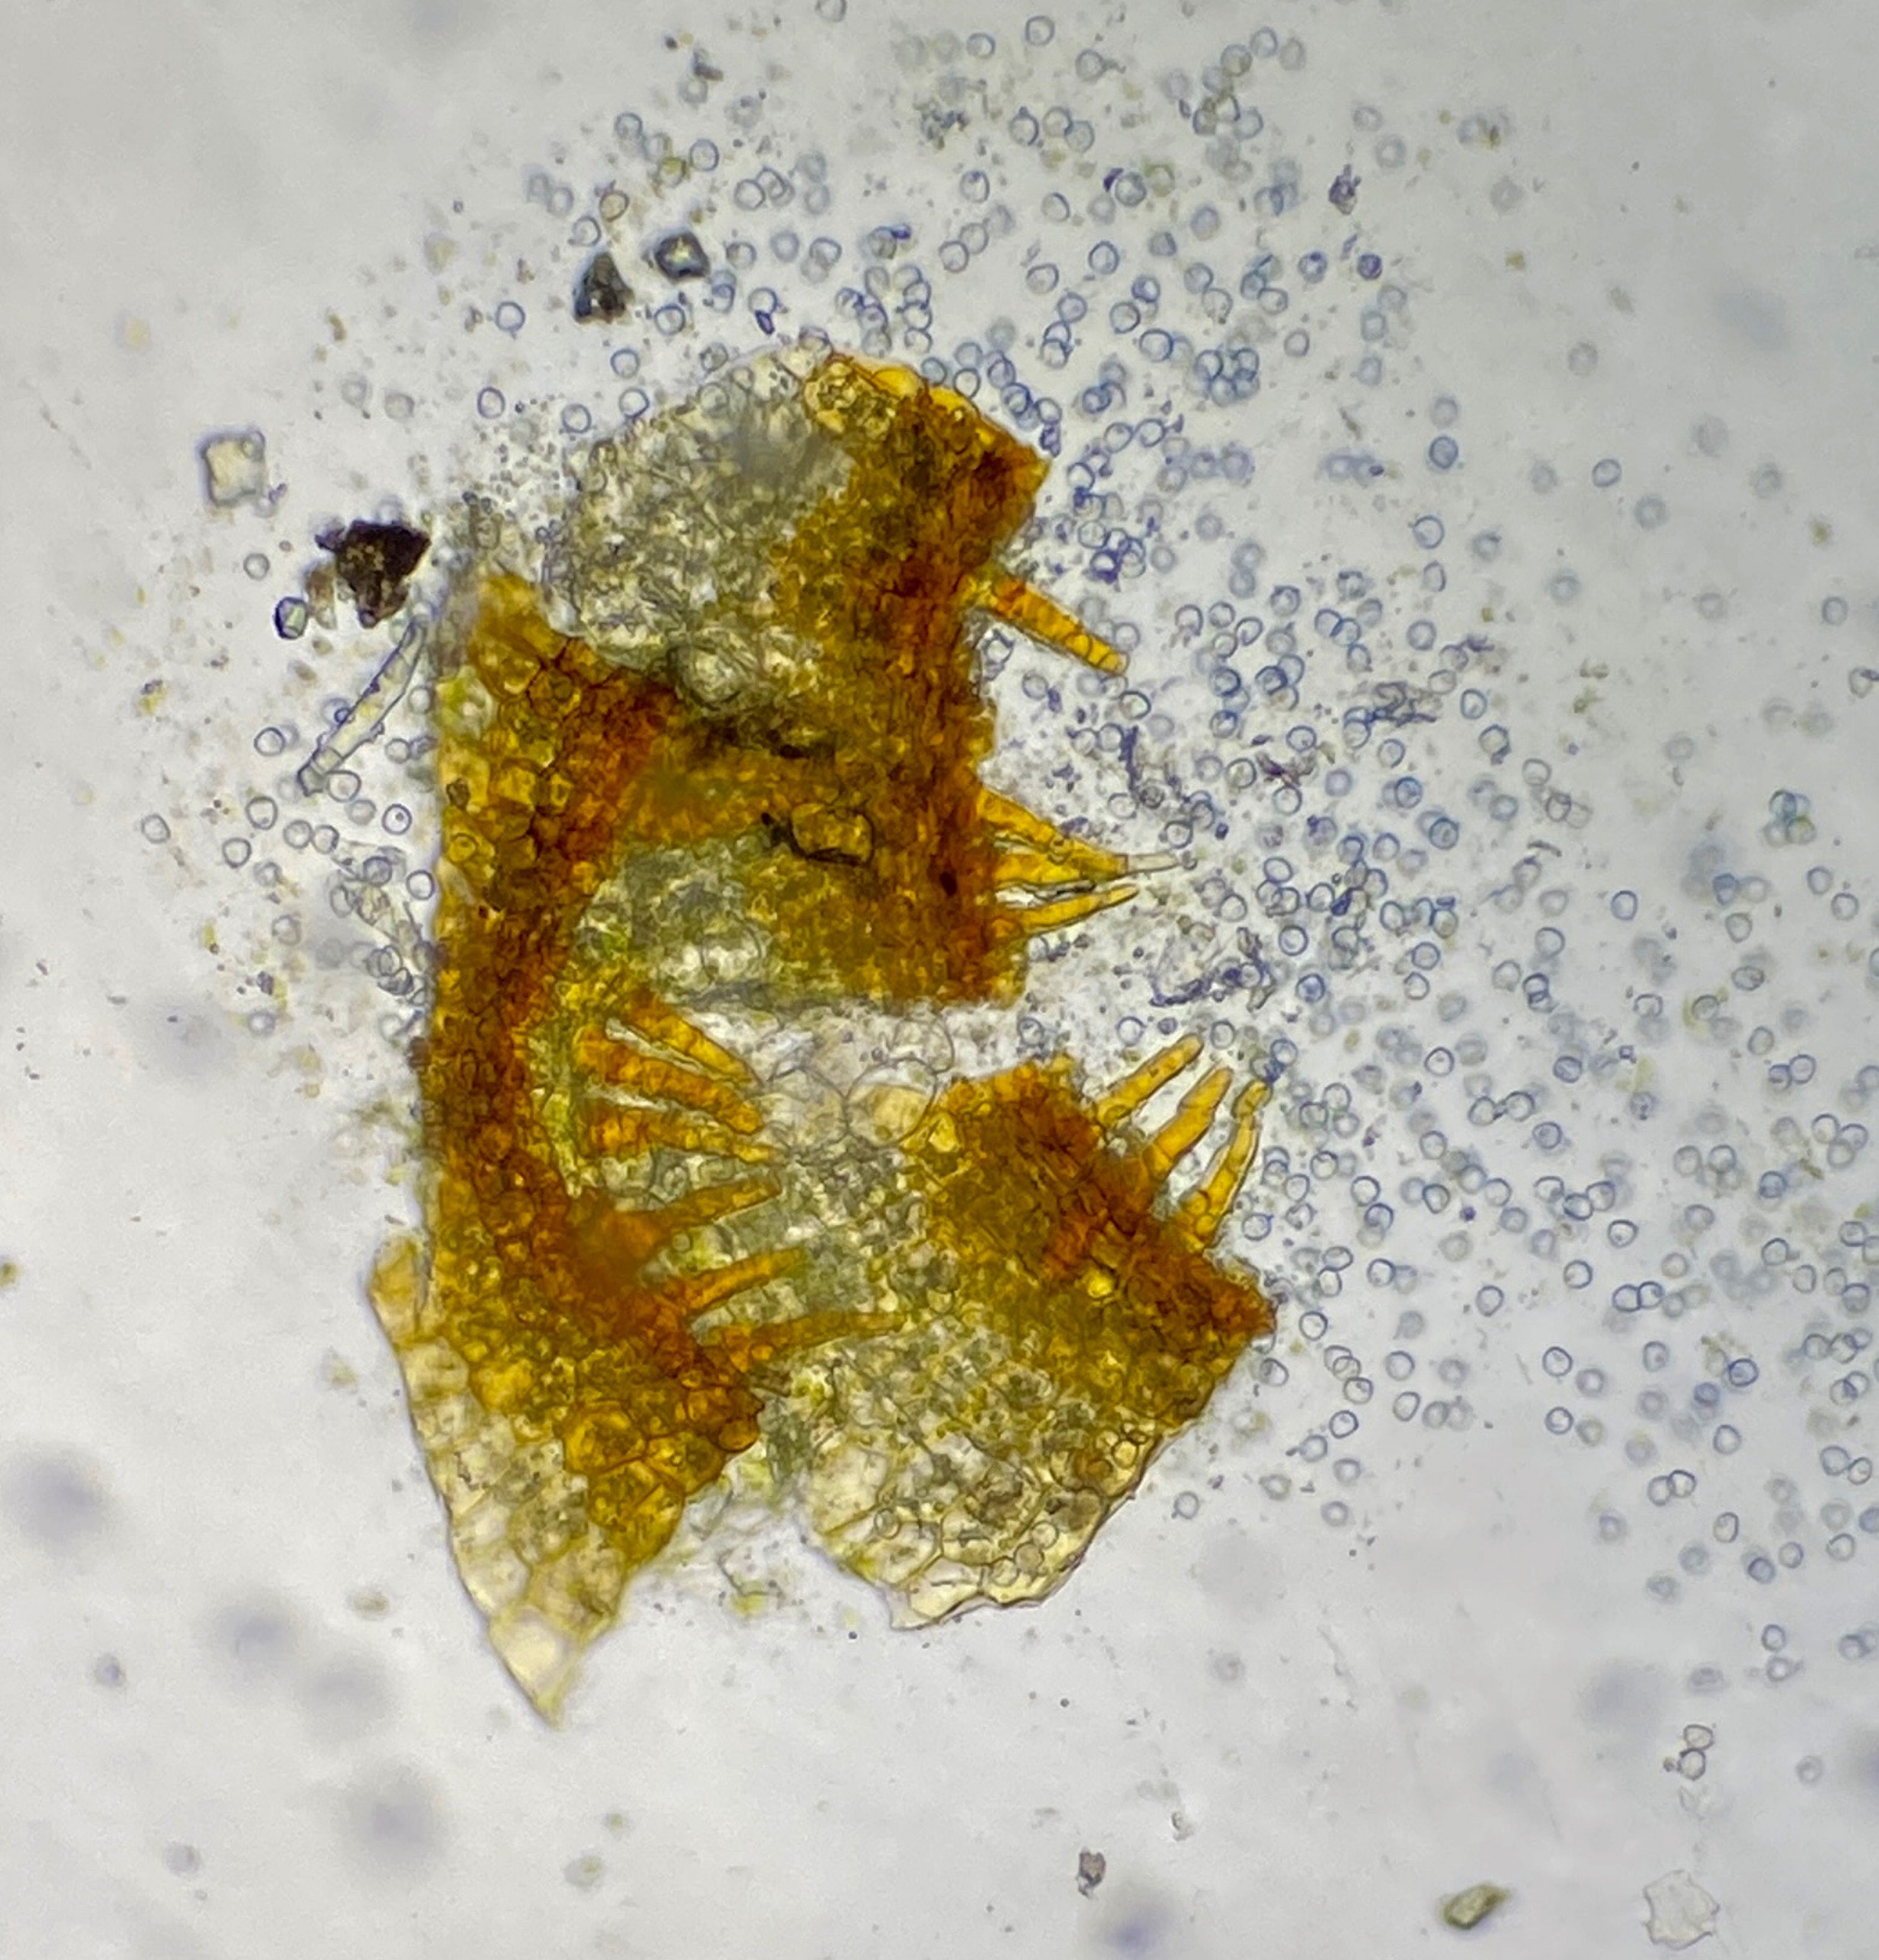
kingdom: Plantae
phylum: Bryophyta
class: Bryopsida
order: Pottiales
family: Pottiaceae
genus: Weissia
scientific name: Weissia controversa
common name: Smaltandet krusmos
